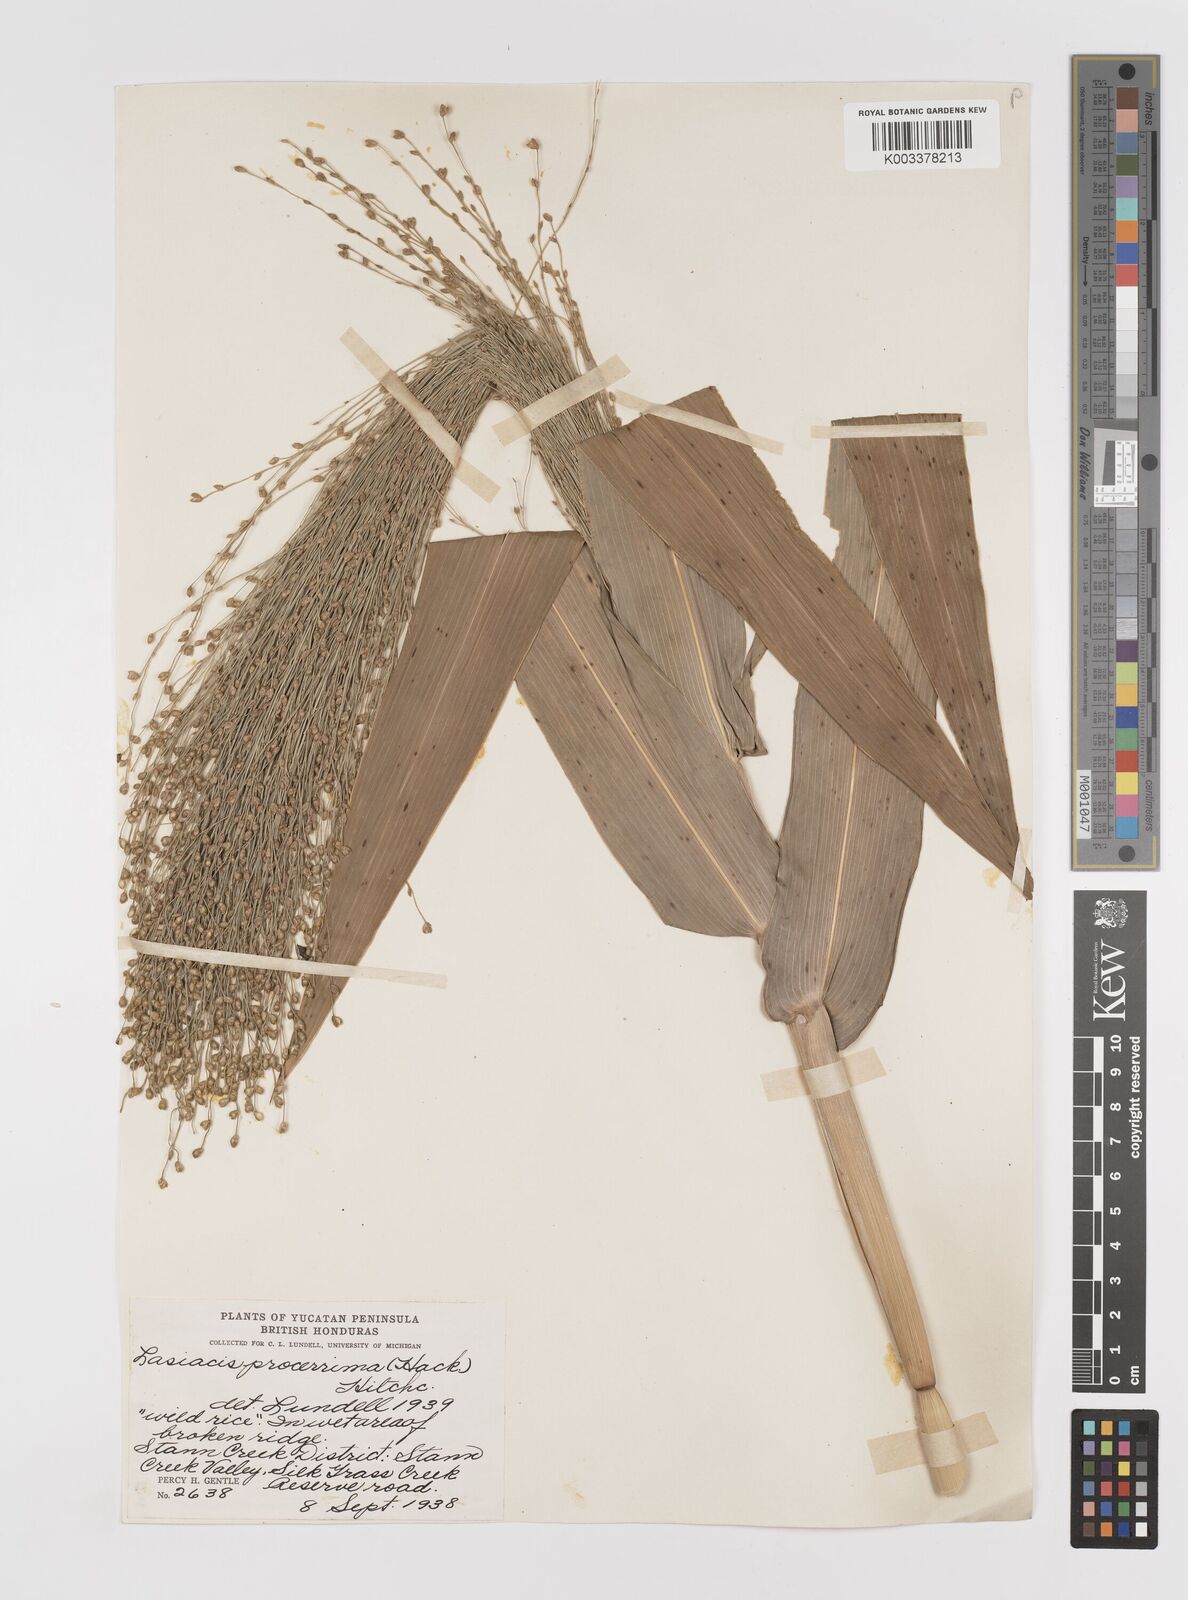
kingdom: Plantae
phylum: Tracheophyta
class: Liliopsida
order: Poales
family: Poaceae
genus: Lasiacis
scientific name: Lasiacis procerrima
